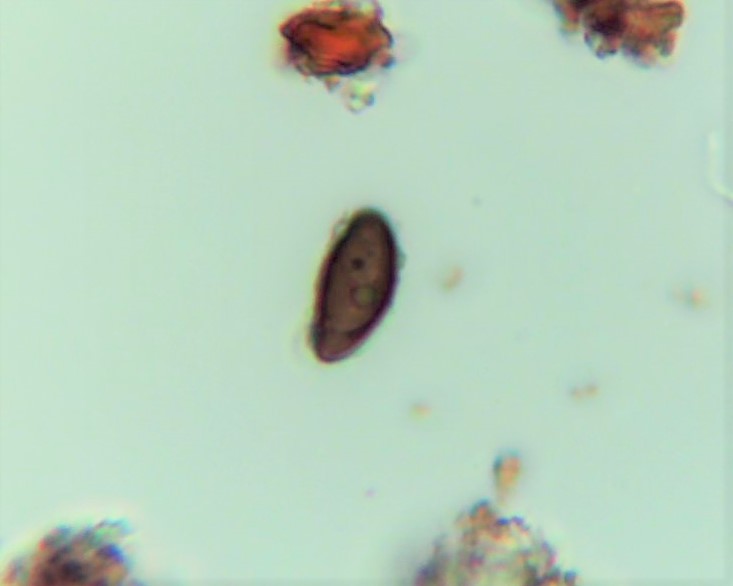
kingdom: Fungi
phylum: Ascomycota
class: Sordariomycetes
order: Xylariales
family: Hypoxylaceae
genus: Hypoxylon
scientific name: Hypoxylon
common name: kulbær
